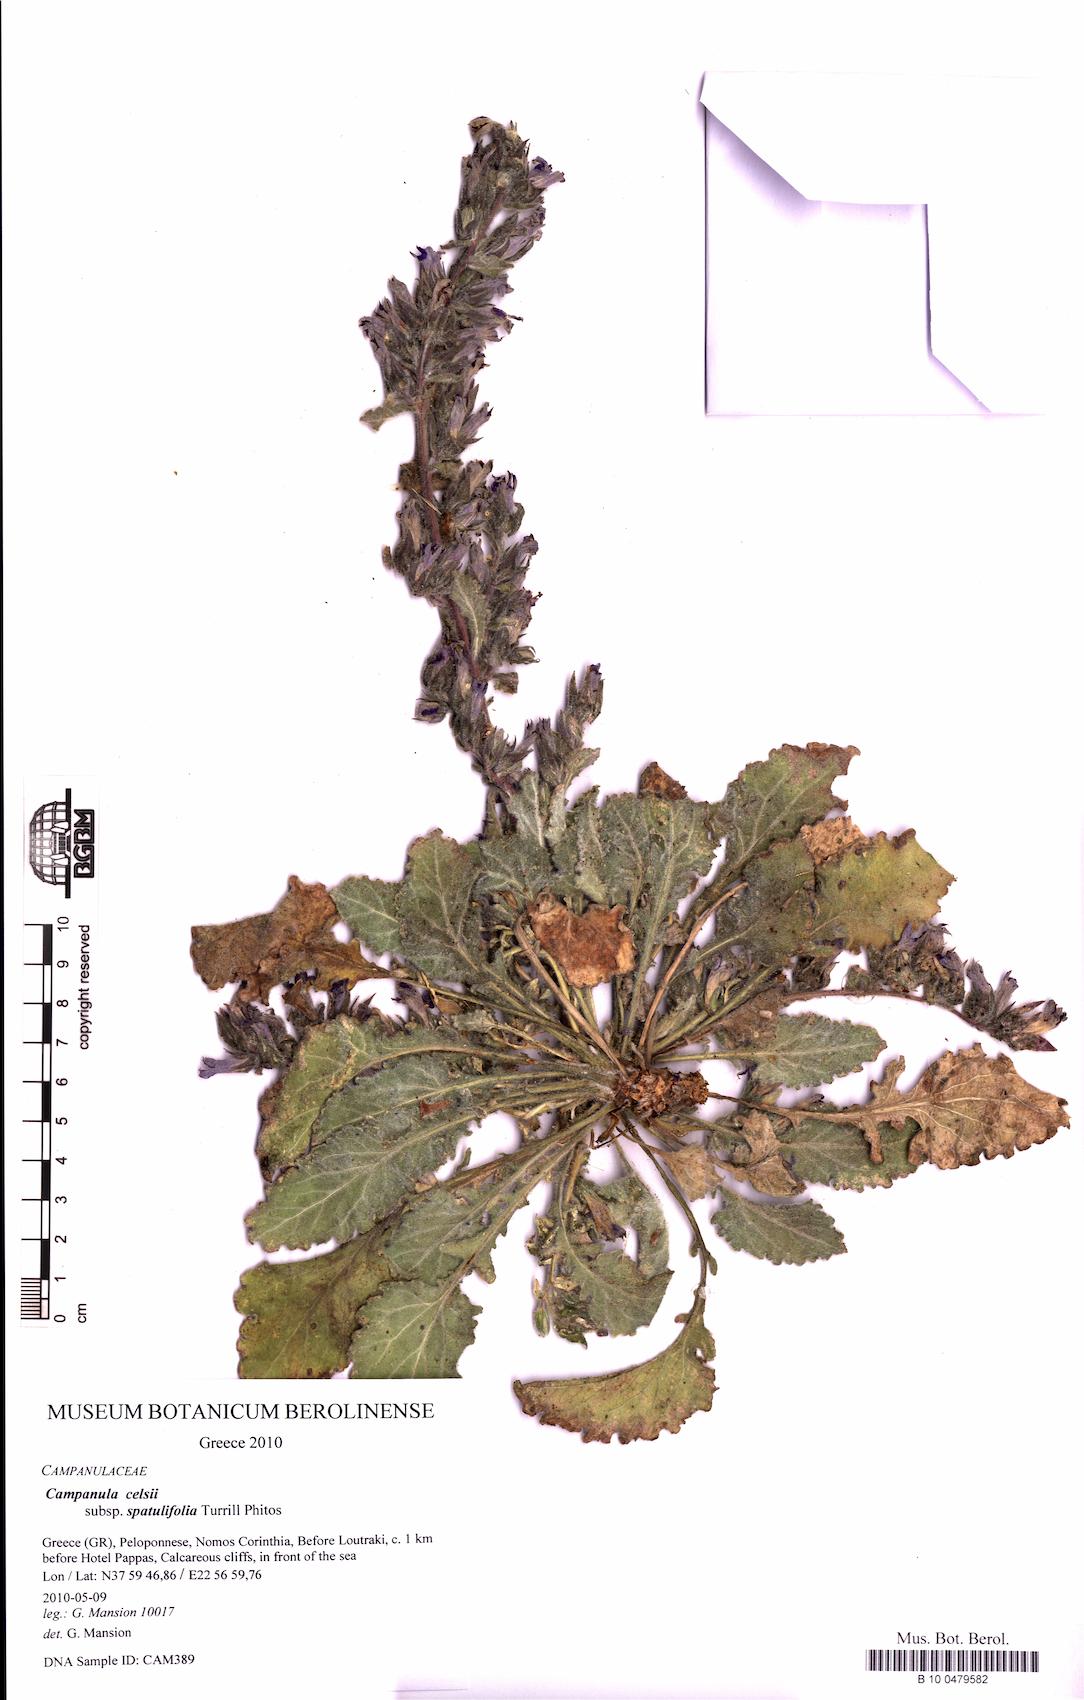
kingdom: Plantae
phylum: Tracheophyta
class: Magnoliopsida
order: Asterales
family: Campanulaceae
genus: Campanula
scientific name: Campanula celsii
